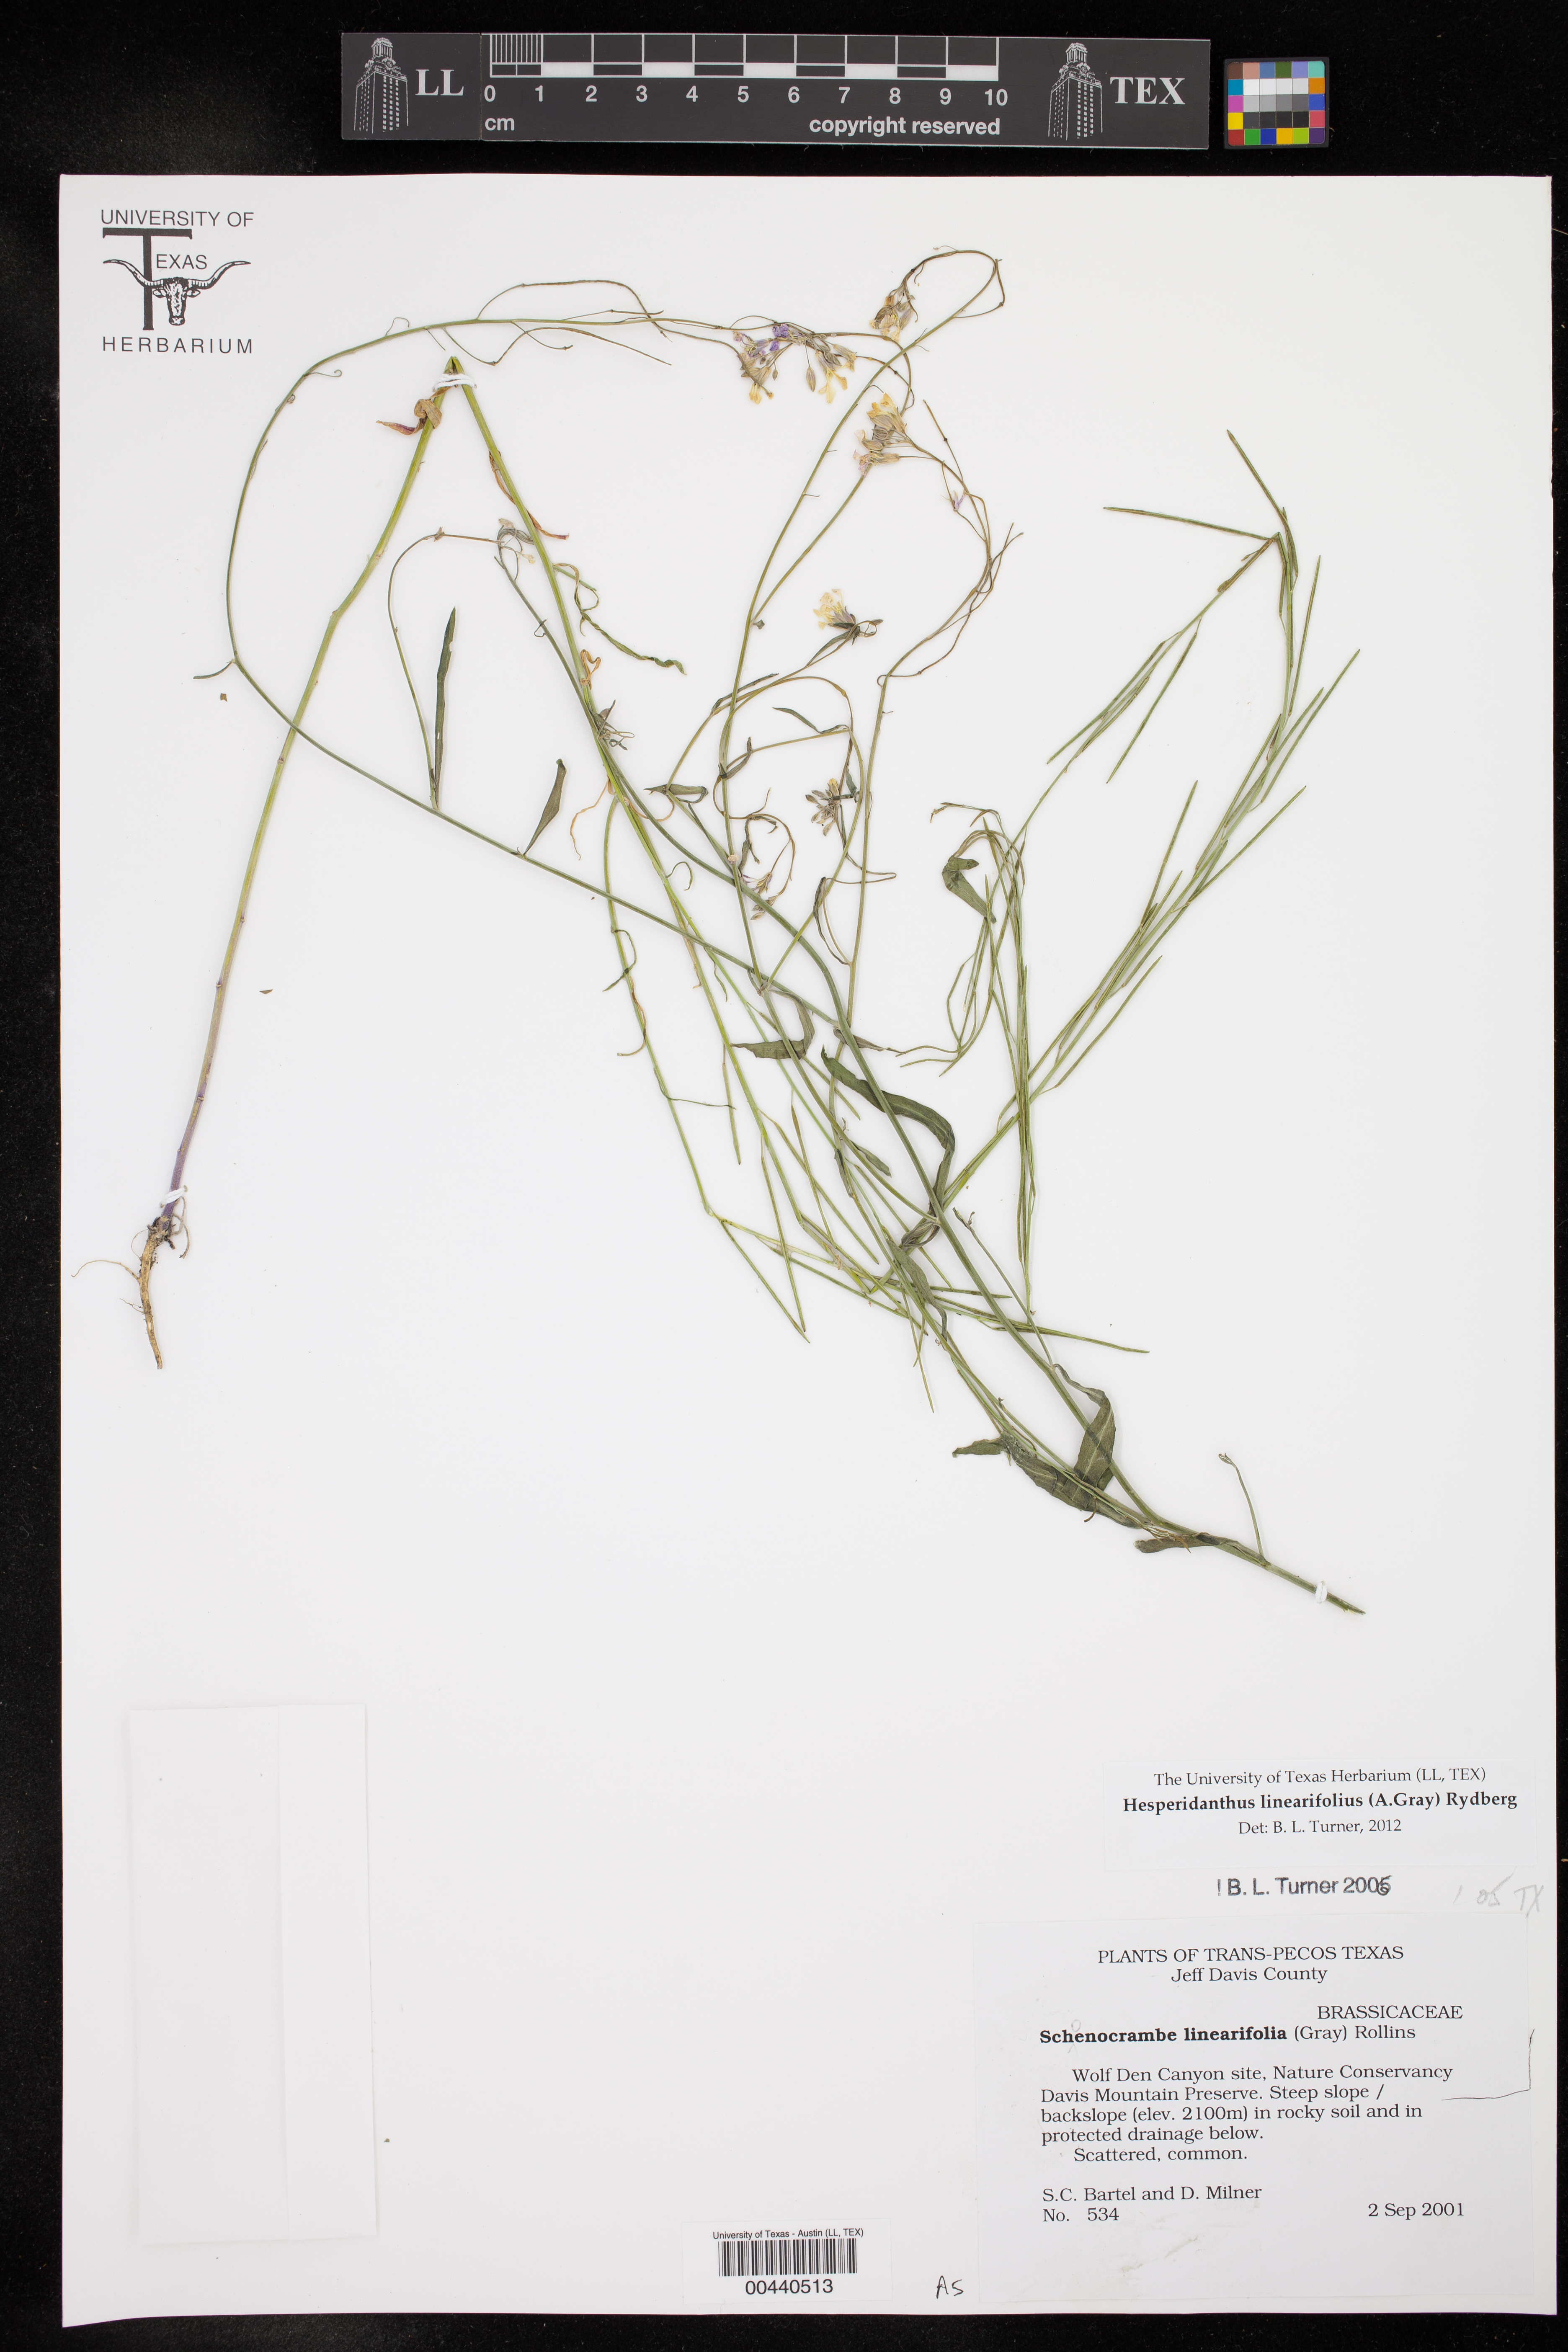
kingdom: Plantae
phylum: Tracheophyta
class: Magnoliopsida
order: Brassicales
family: Brassicaceae
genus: Hesperidanthus
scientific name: Hesperidanthus linearifolius
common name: Slim-leaf plains mustard
